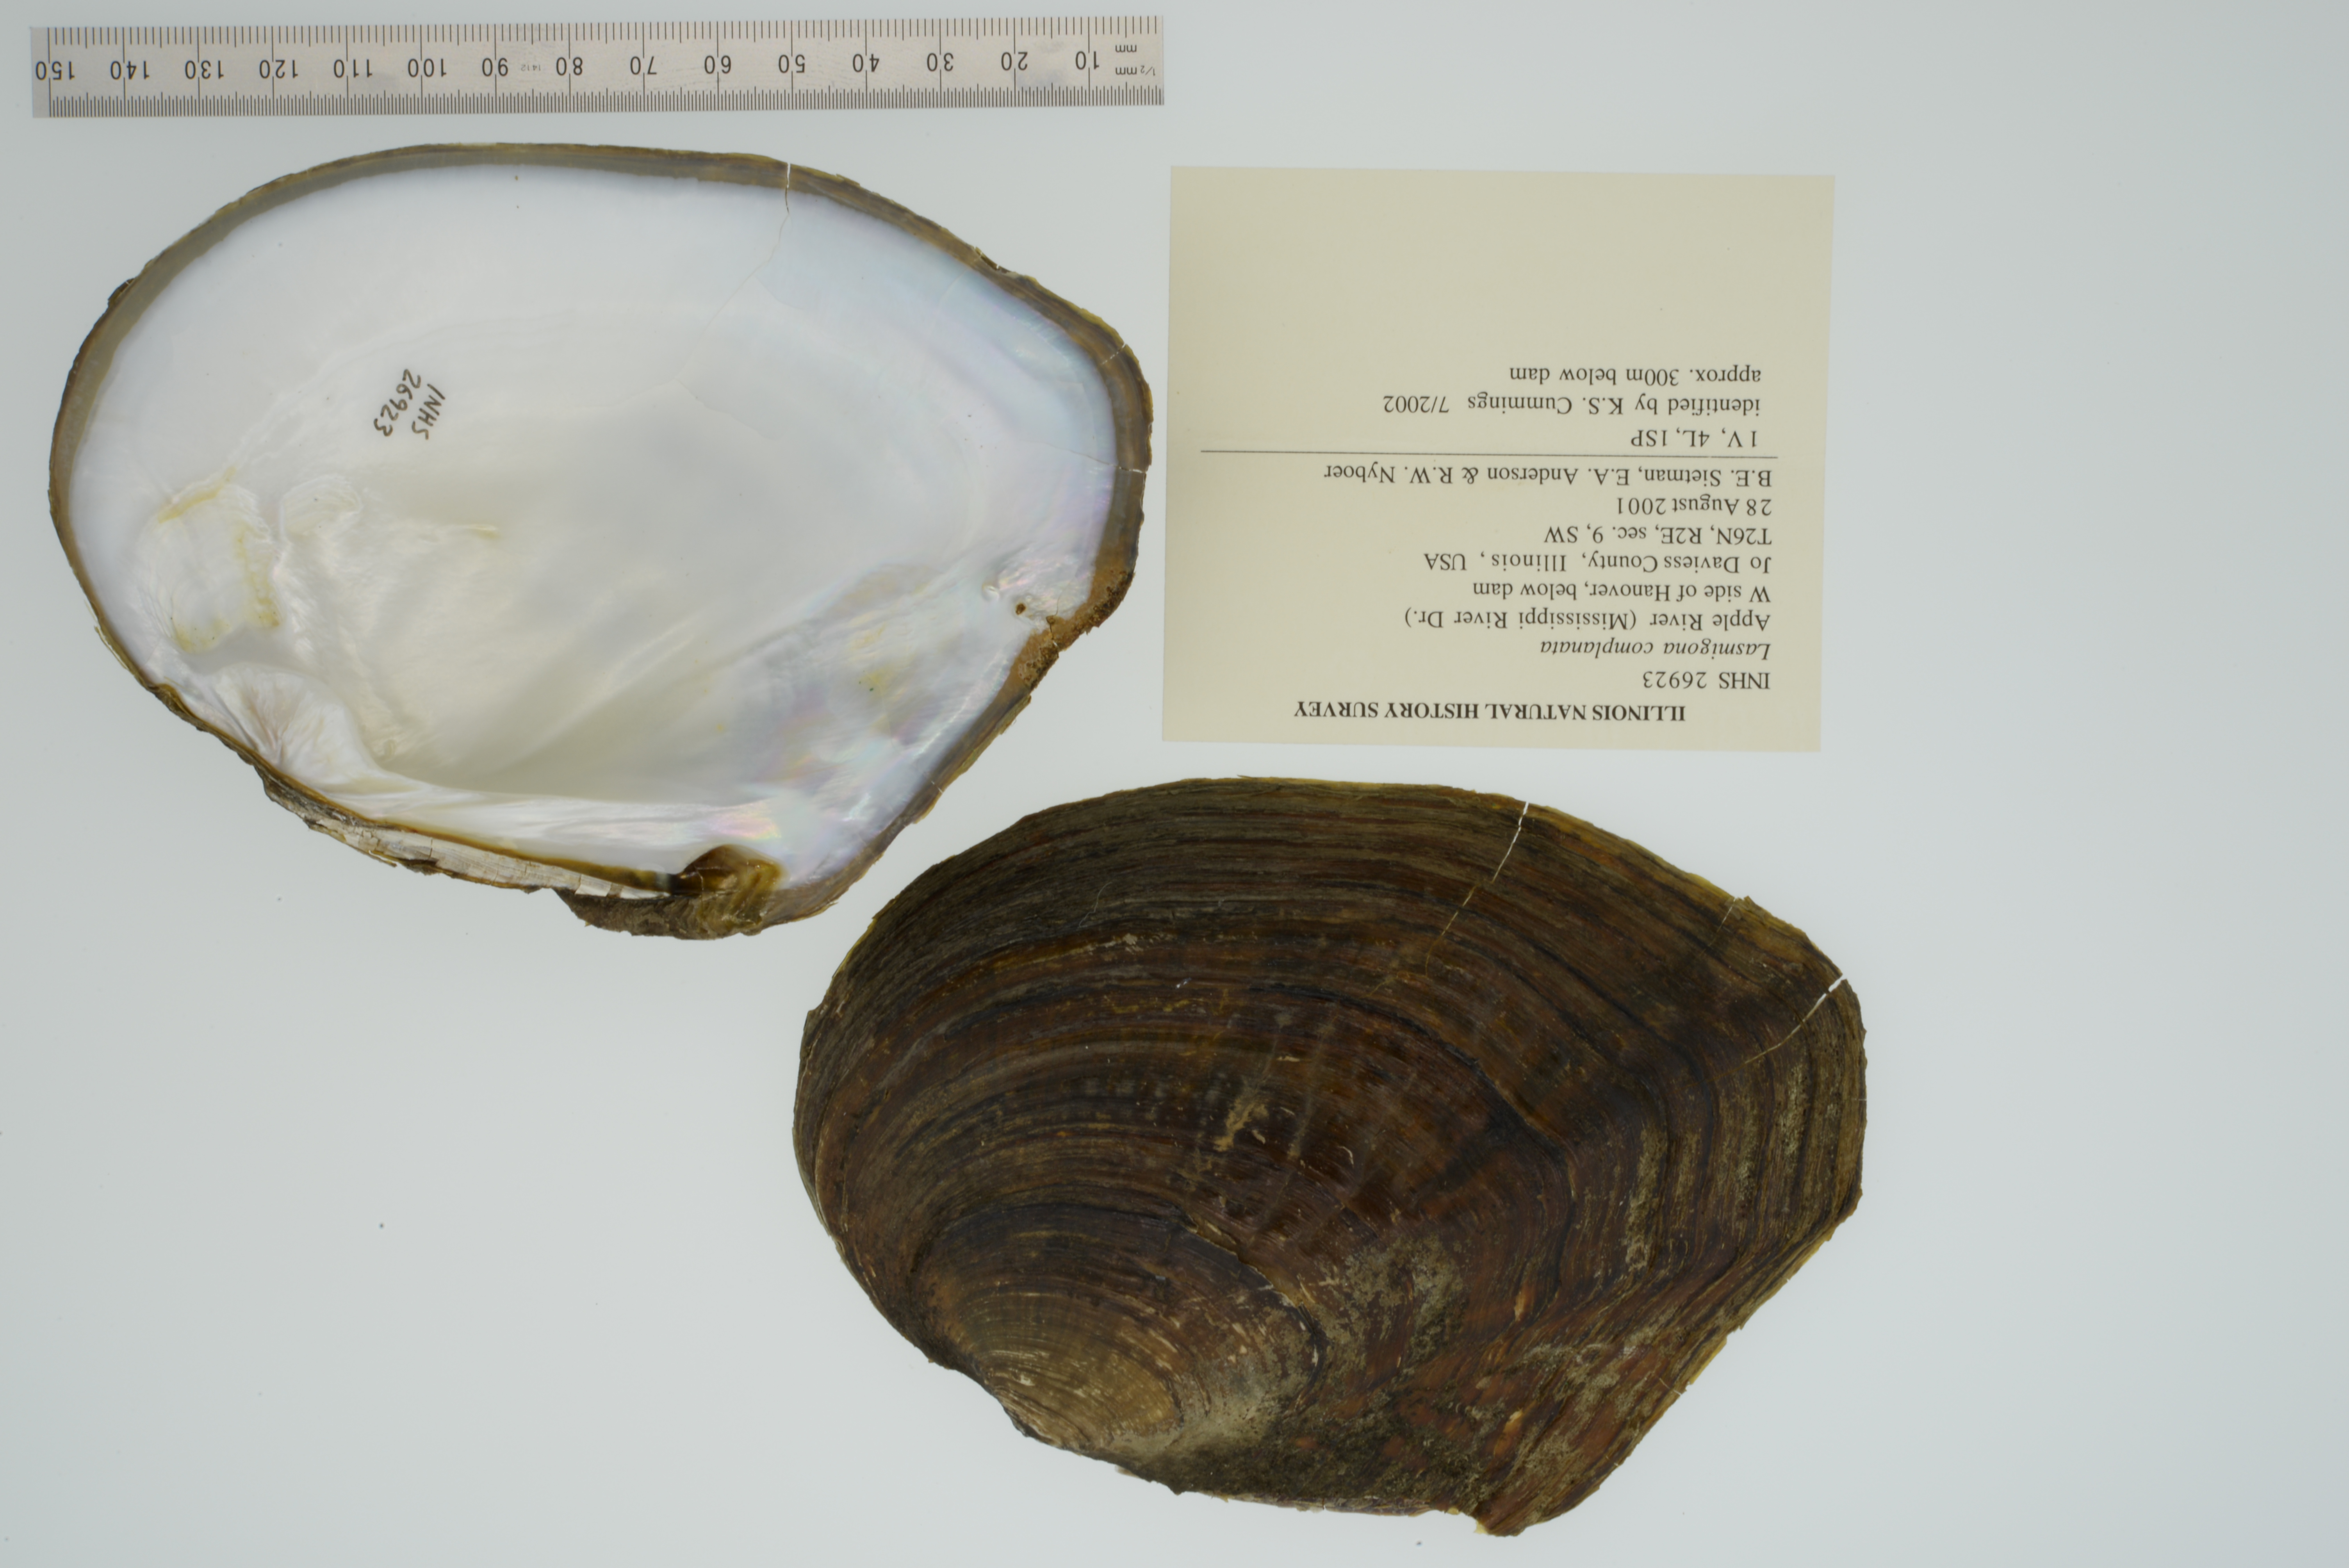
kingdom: Animalia
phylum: Mollusca
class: Bivalvia
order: Unionida
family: Unionidae
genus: Lasmigona
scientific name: Lasmigona complanata
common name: White heelsplitter
